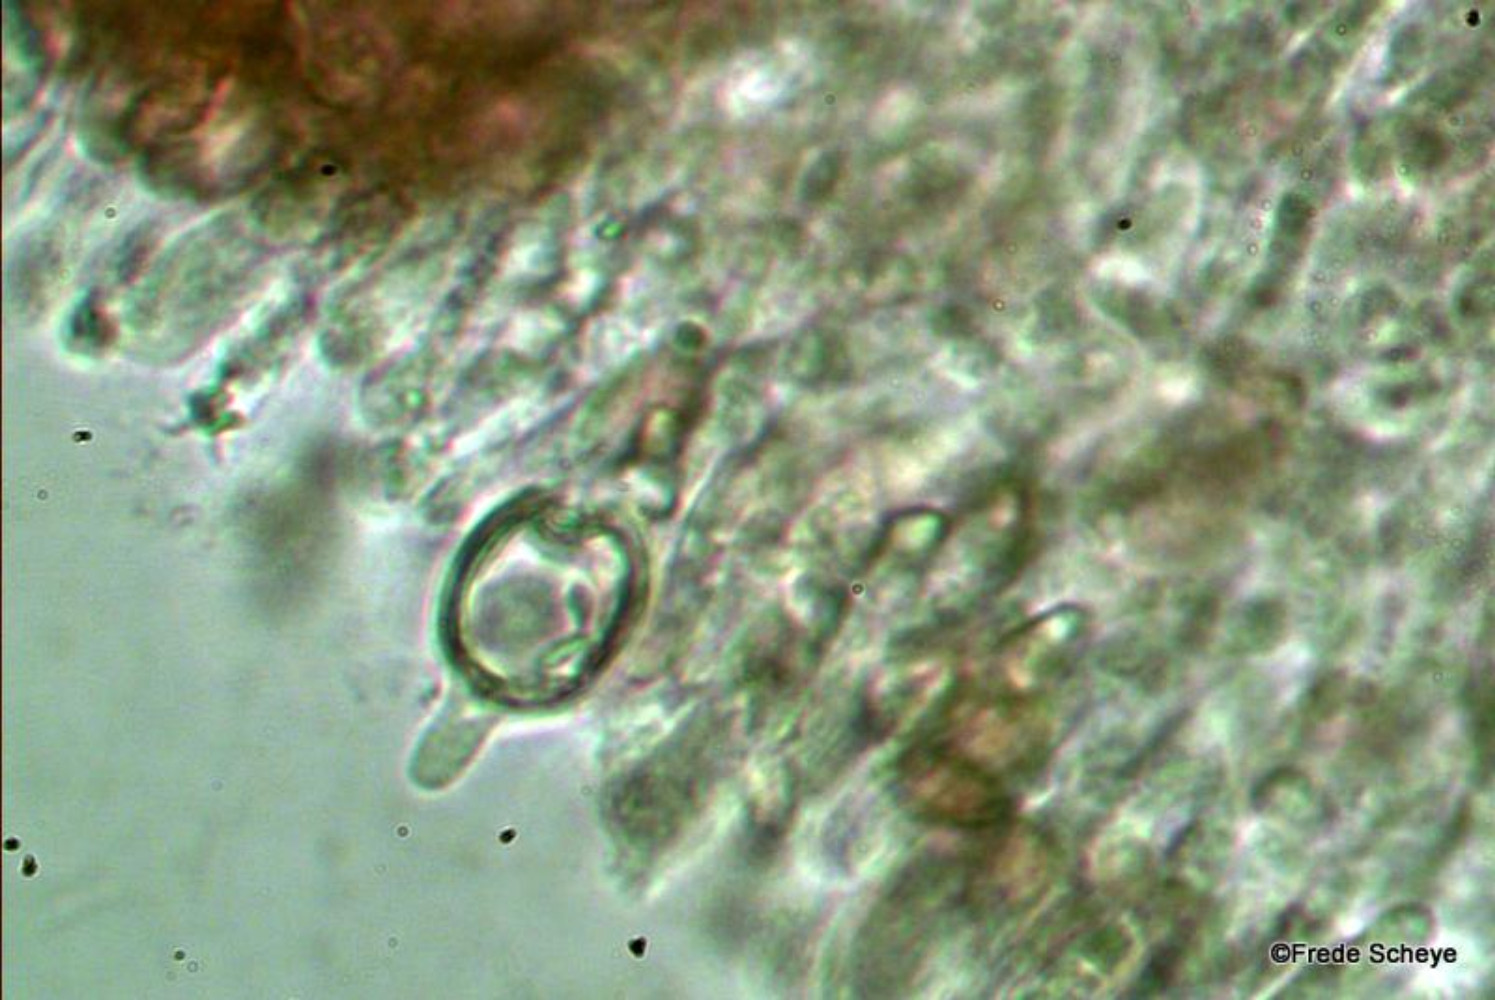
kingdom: Fungi
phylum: Basidiomycota
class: Agaricomycetes
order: Agaricales
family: Strophariaceae
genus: Pholiota
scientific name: Pholiota squarrosa
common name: krumskællet skælhat
